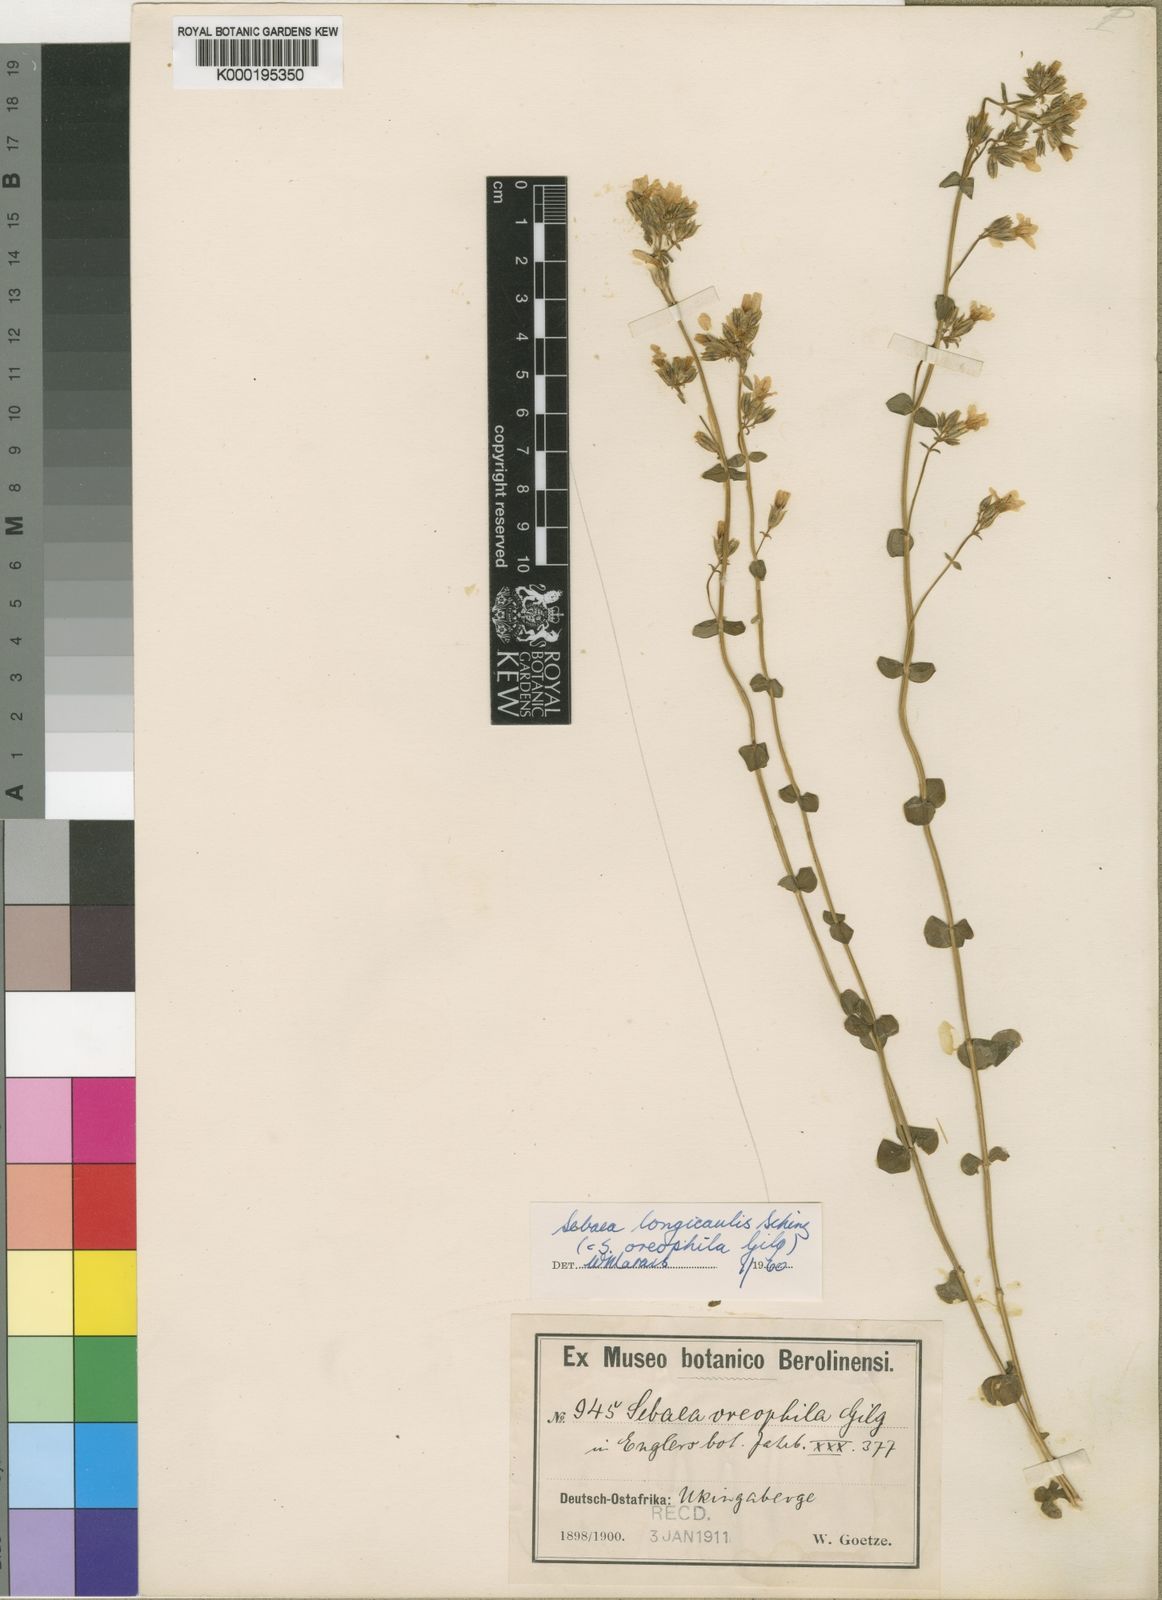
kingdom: Plantae
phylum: Tracheophyta
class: Magnoliopsida
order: Gentianales
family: Gentianaceae
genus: Sebaea
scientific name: Sebaea longicaulis
